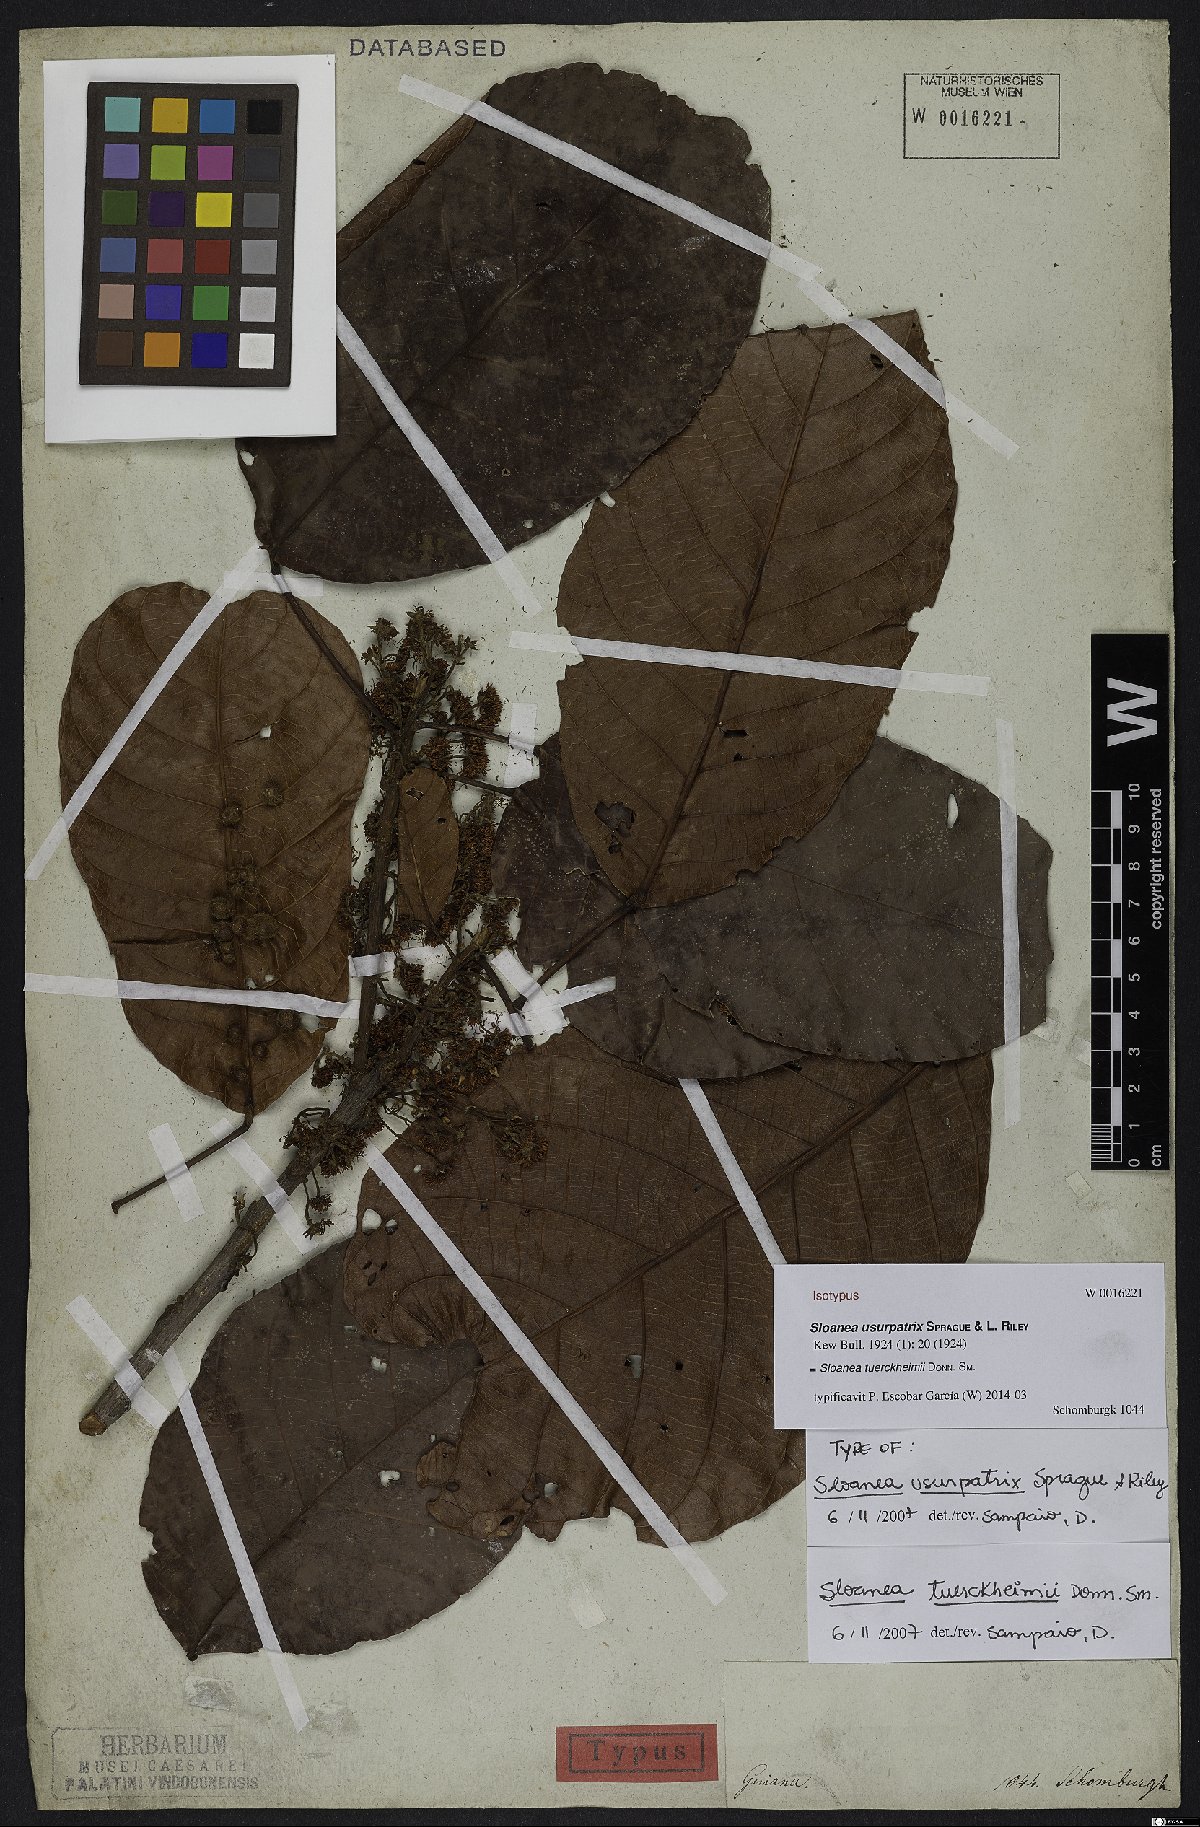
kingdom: Plantae
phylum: Tracheophyta
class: Magnoliopsida
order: Oxalidales
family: Elaeocarpaceae
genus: Sloanea
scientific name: Sloanea tuerckheimii
